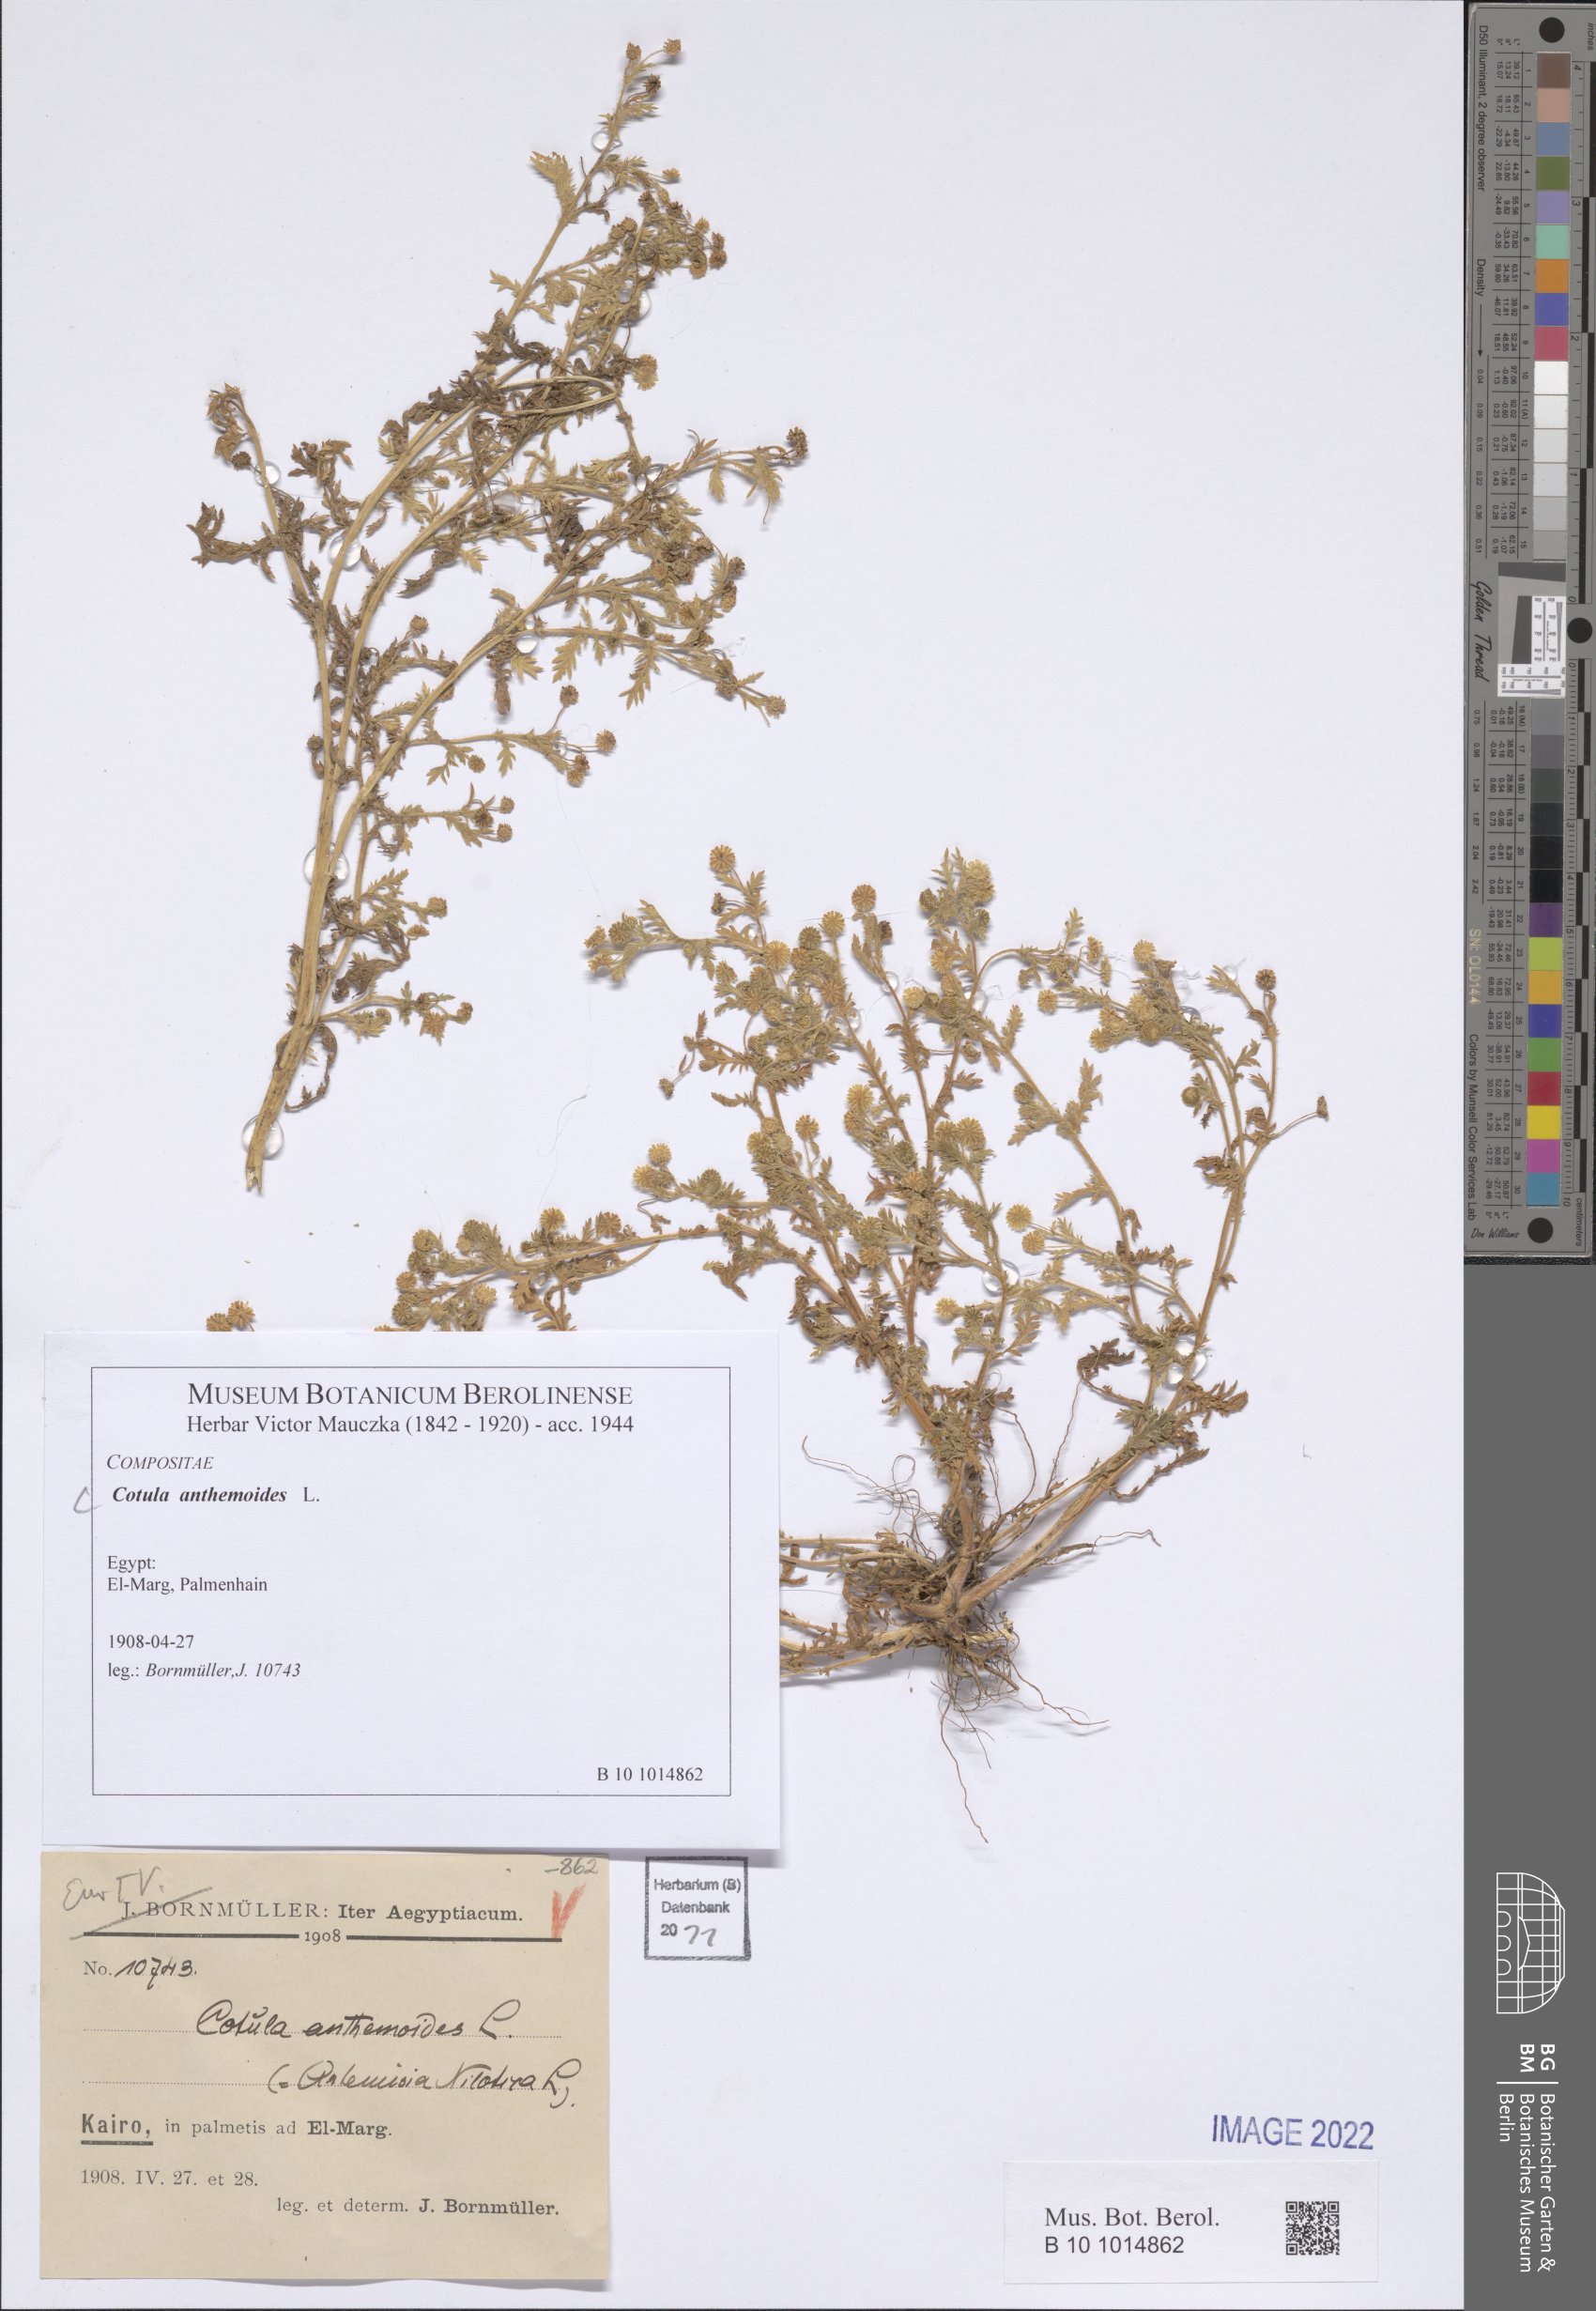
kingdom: Plantae
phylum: Tracheophyta
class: Magnoliopsida
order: Asterales
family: Asteraceae
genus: Cotula
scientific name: Cotula anthemoides
